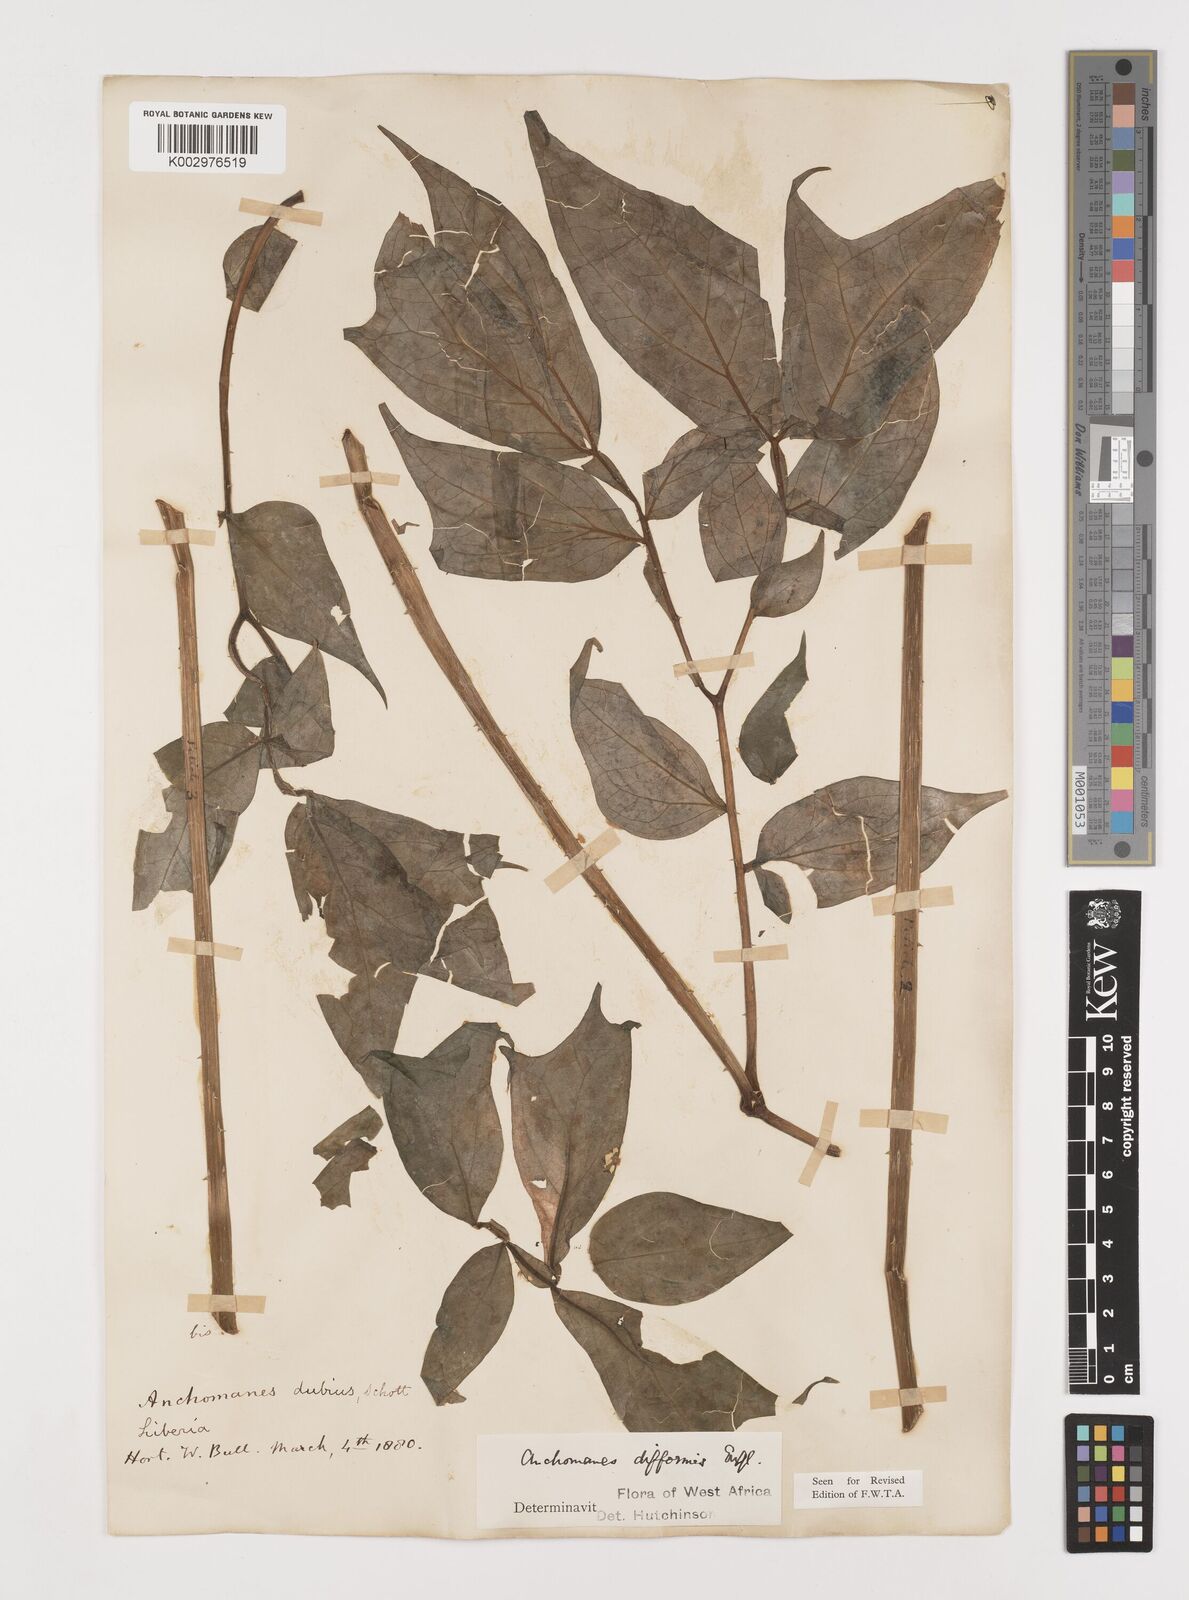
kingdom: Plantae
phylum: Tracheophyta
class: Liliopsida
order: Alismatales
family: Araceae
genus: Anchomanes
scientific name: Anchomanes difformis
